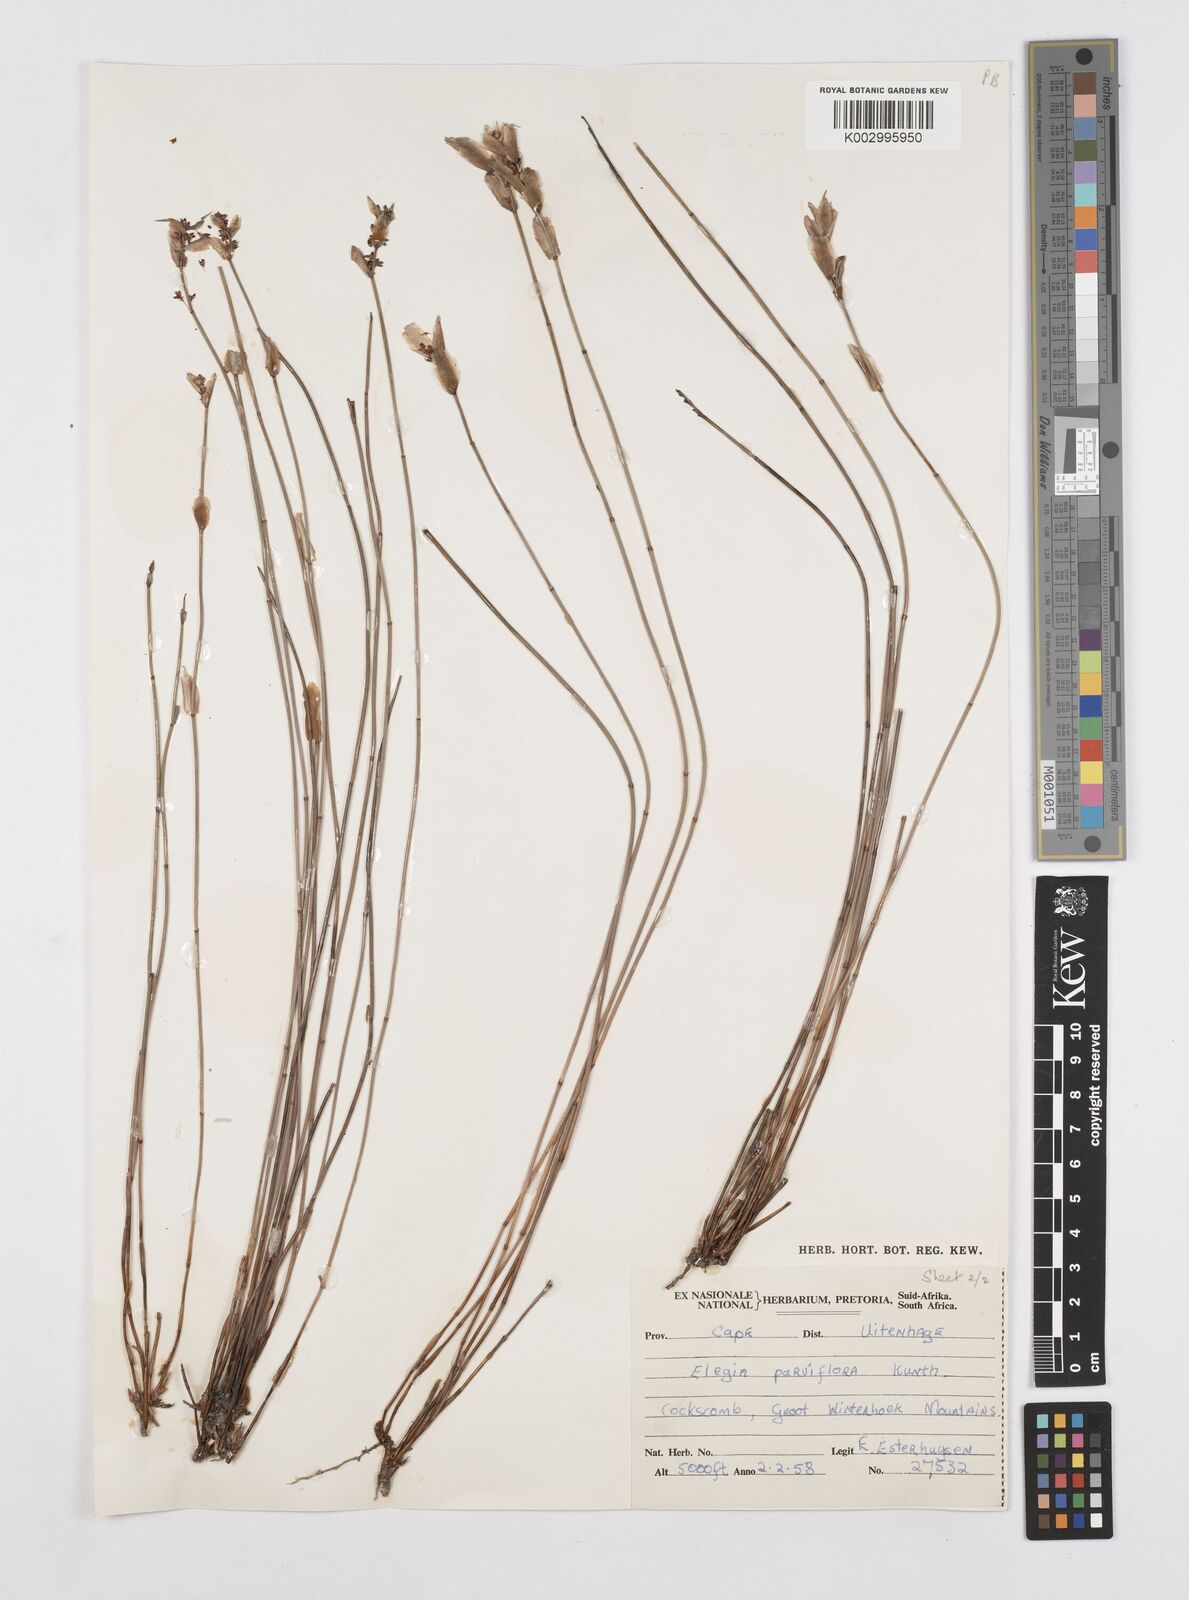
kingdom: Plantae
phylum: Tracheophyta
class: Liliopsida
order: Poales
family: Restionaceae
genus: Cannomois
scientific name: Cannomois parviflora
